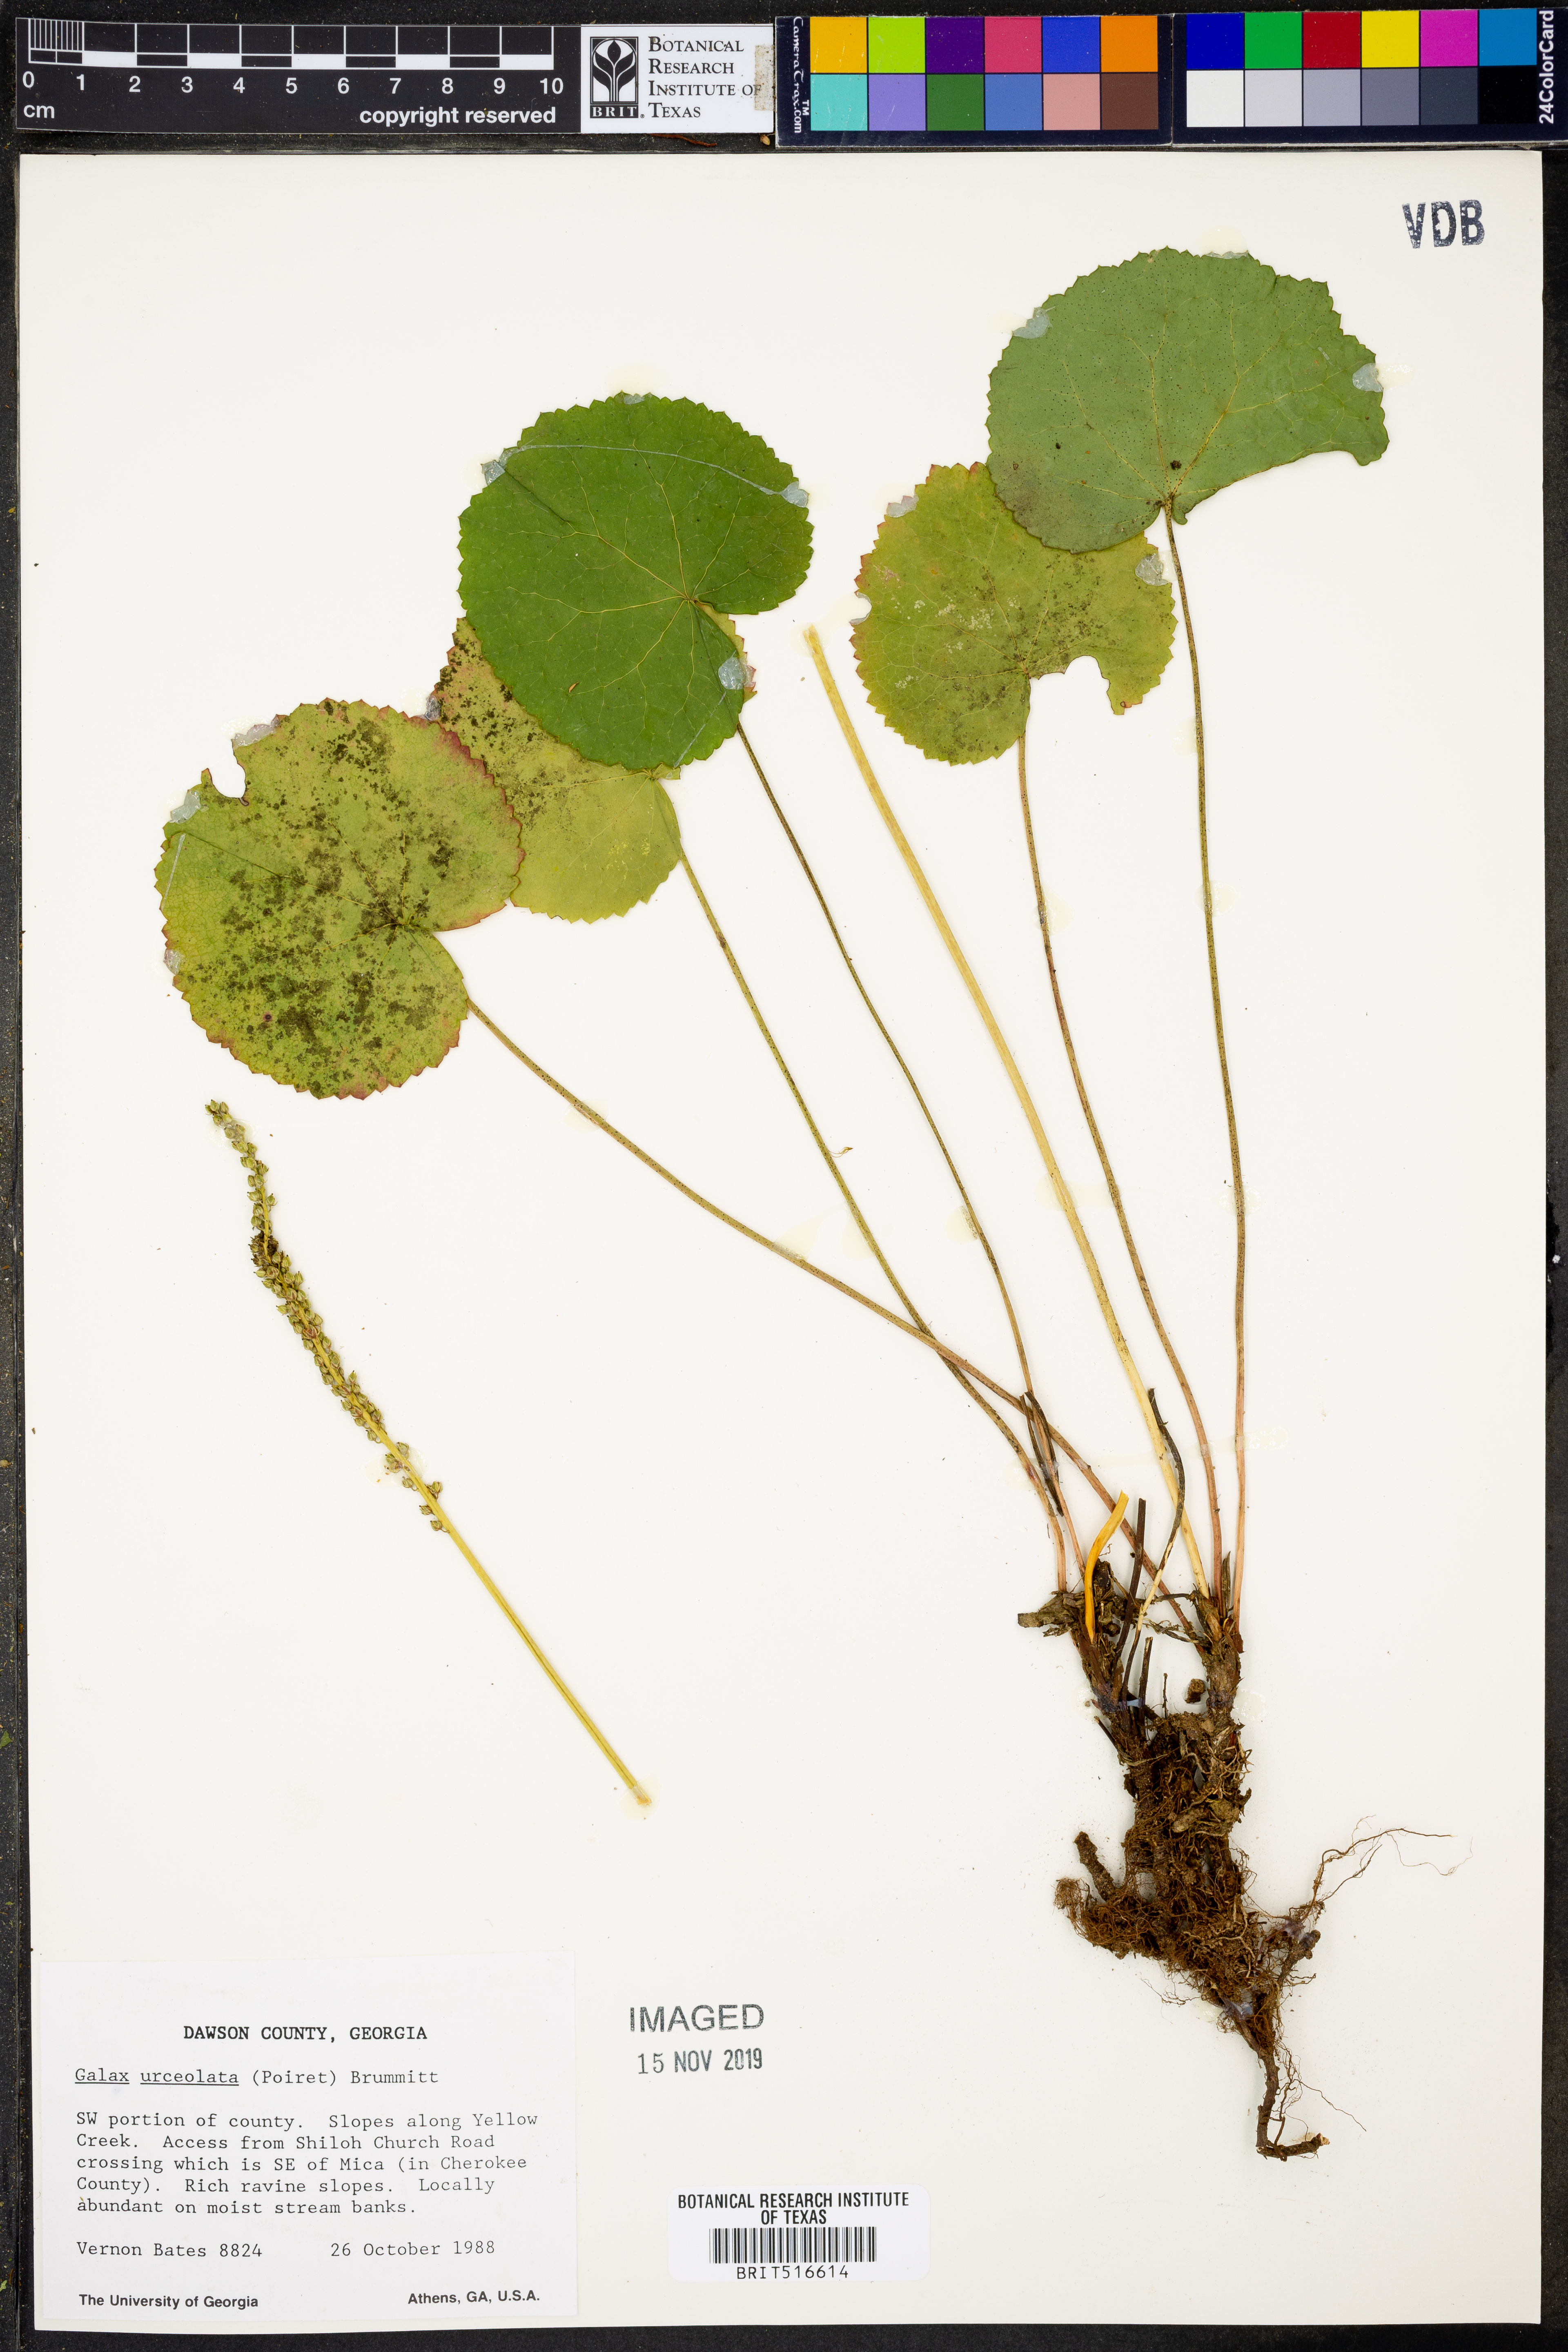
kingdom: Plantae
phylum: Tracheophyta
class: Magnoliopsida
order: Ericales
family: Diapensiaceae
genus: Galax
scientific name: Galax urceolata
